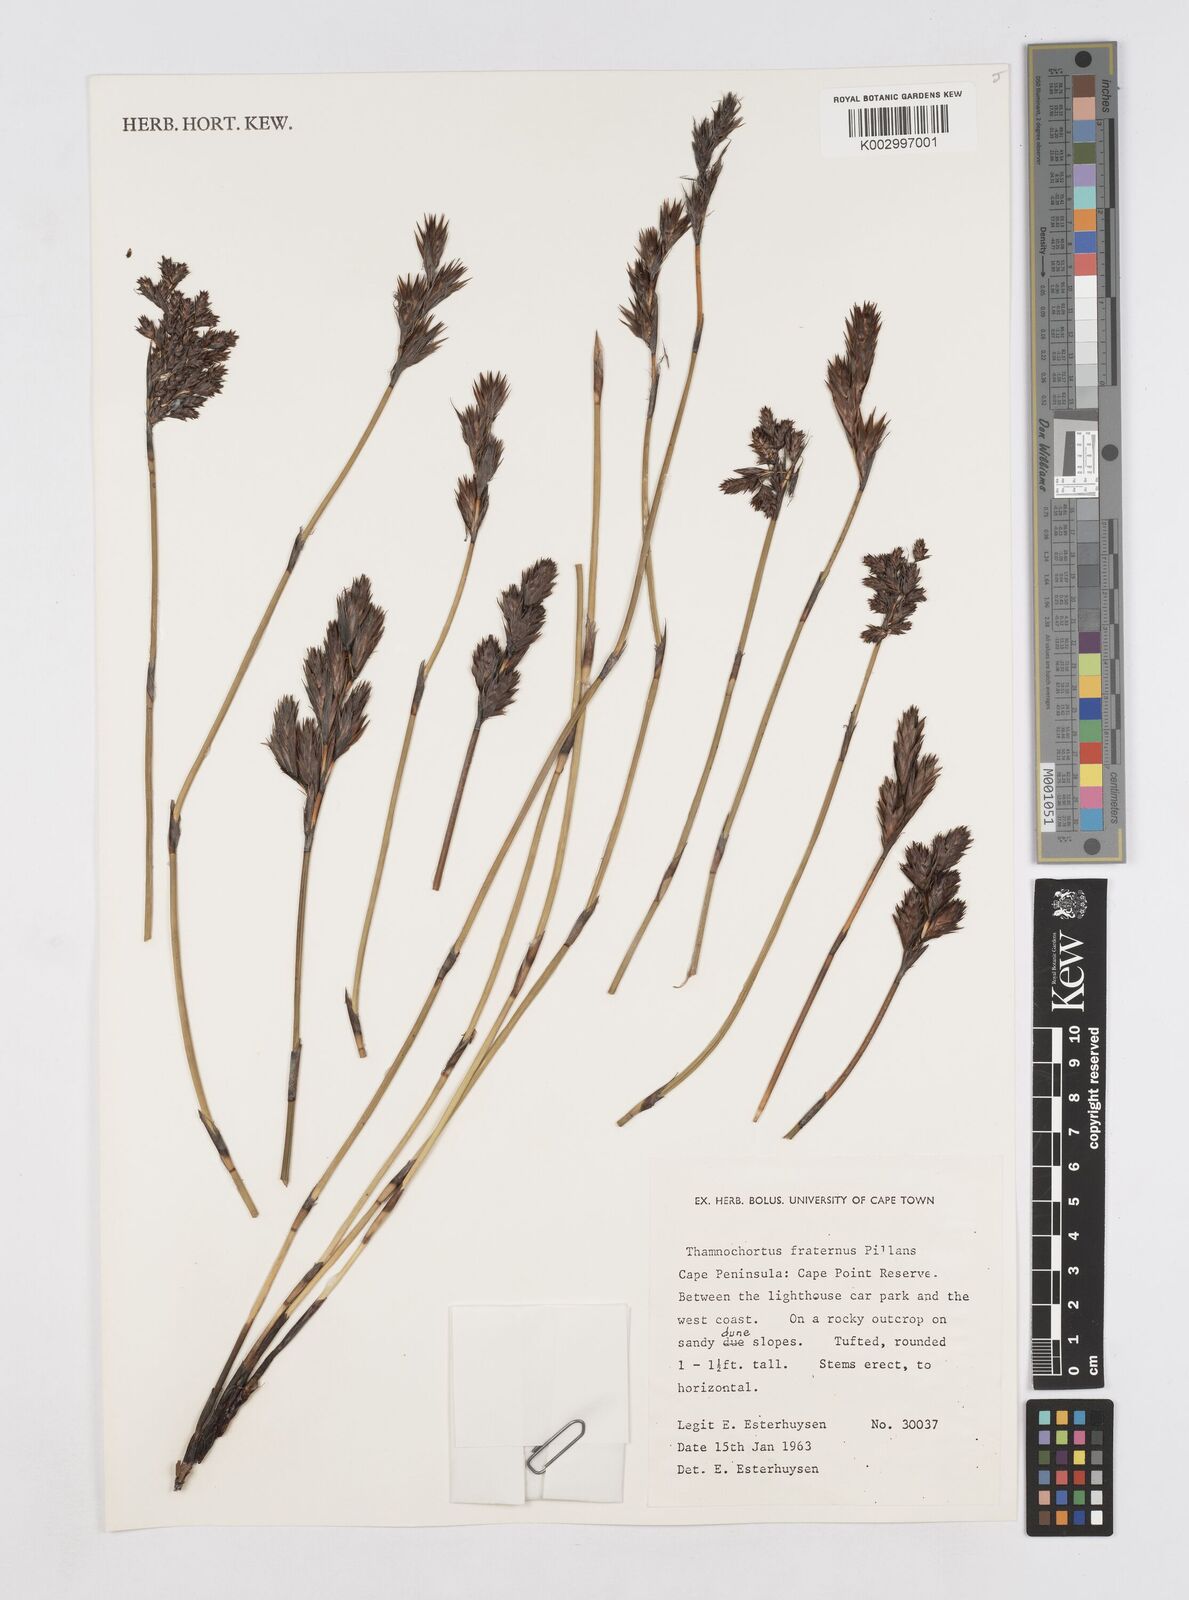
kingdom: Plantae
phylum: Tracheophyta
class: Liliopsida
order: Poales
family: Restionaceae
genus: Thamnochortus
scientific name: Thamnochortus fraternus
